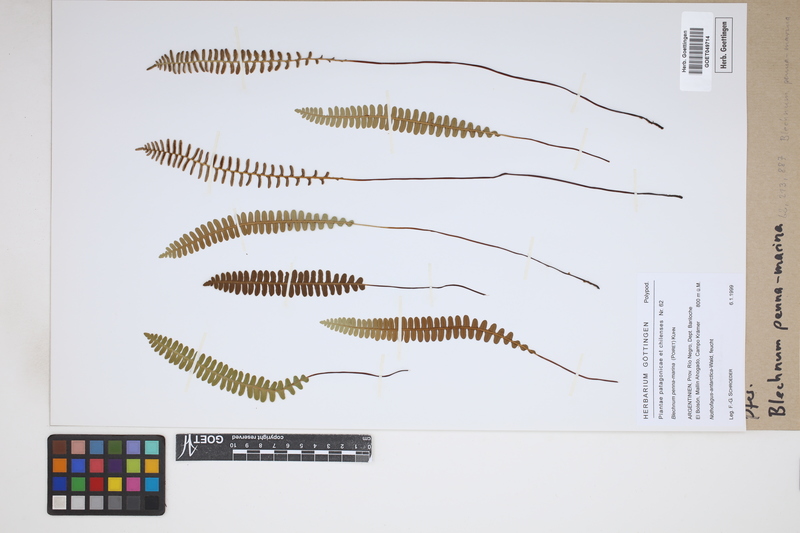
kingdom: Plantae
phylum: Tracheophyta
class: Polypodiopsida
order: Polypodiales
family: Blechnaceae
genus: Austroblechnum
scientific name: Austroblechnum penna-marina
